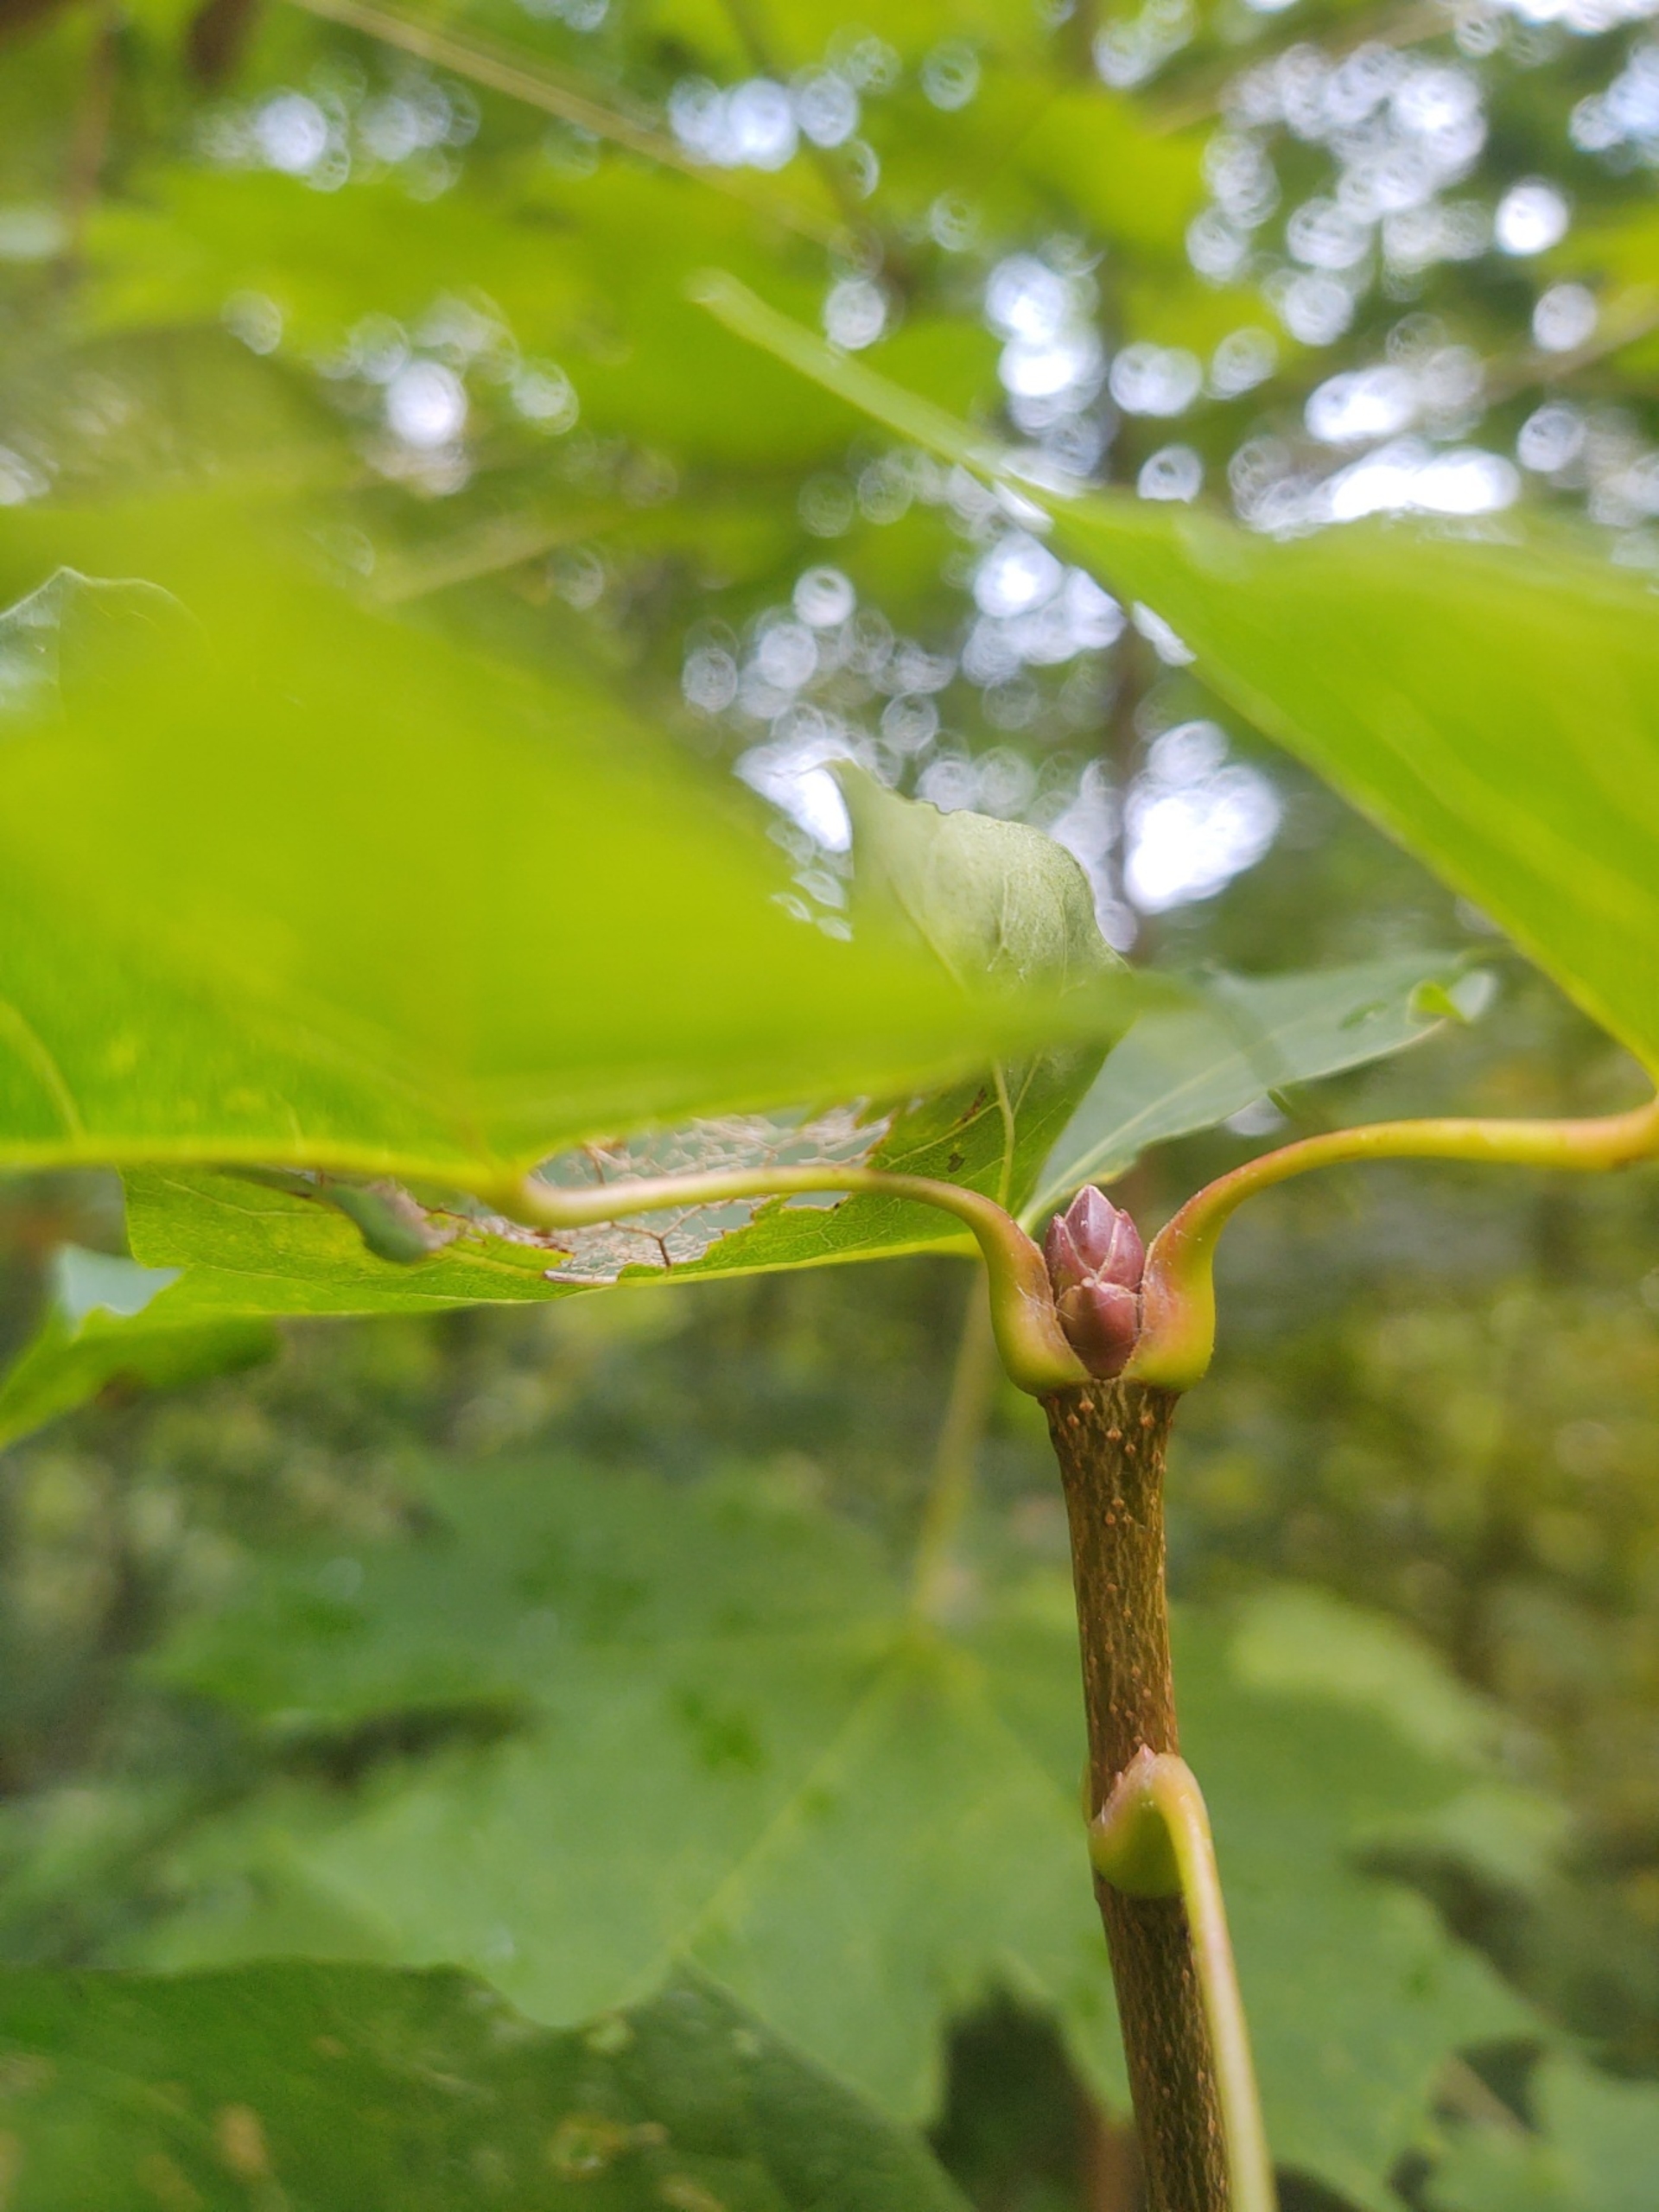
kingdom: Plantae
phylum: Tracheophyta
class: Magnoliopsida
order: Sapindales
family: Sapindaceae
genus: Acer
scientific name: Acer platanoides
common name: Spids-løn
